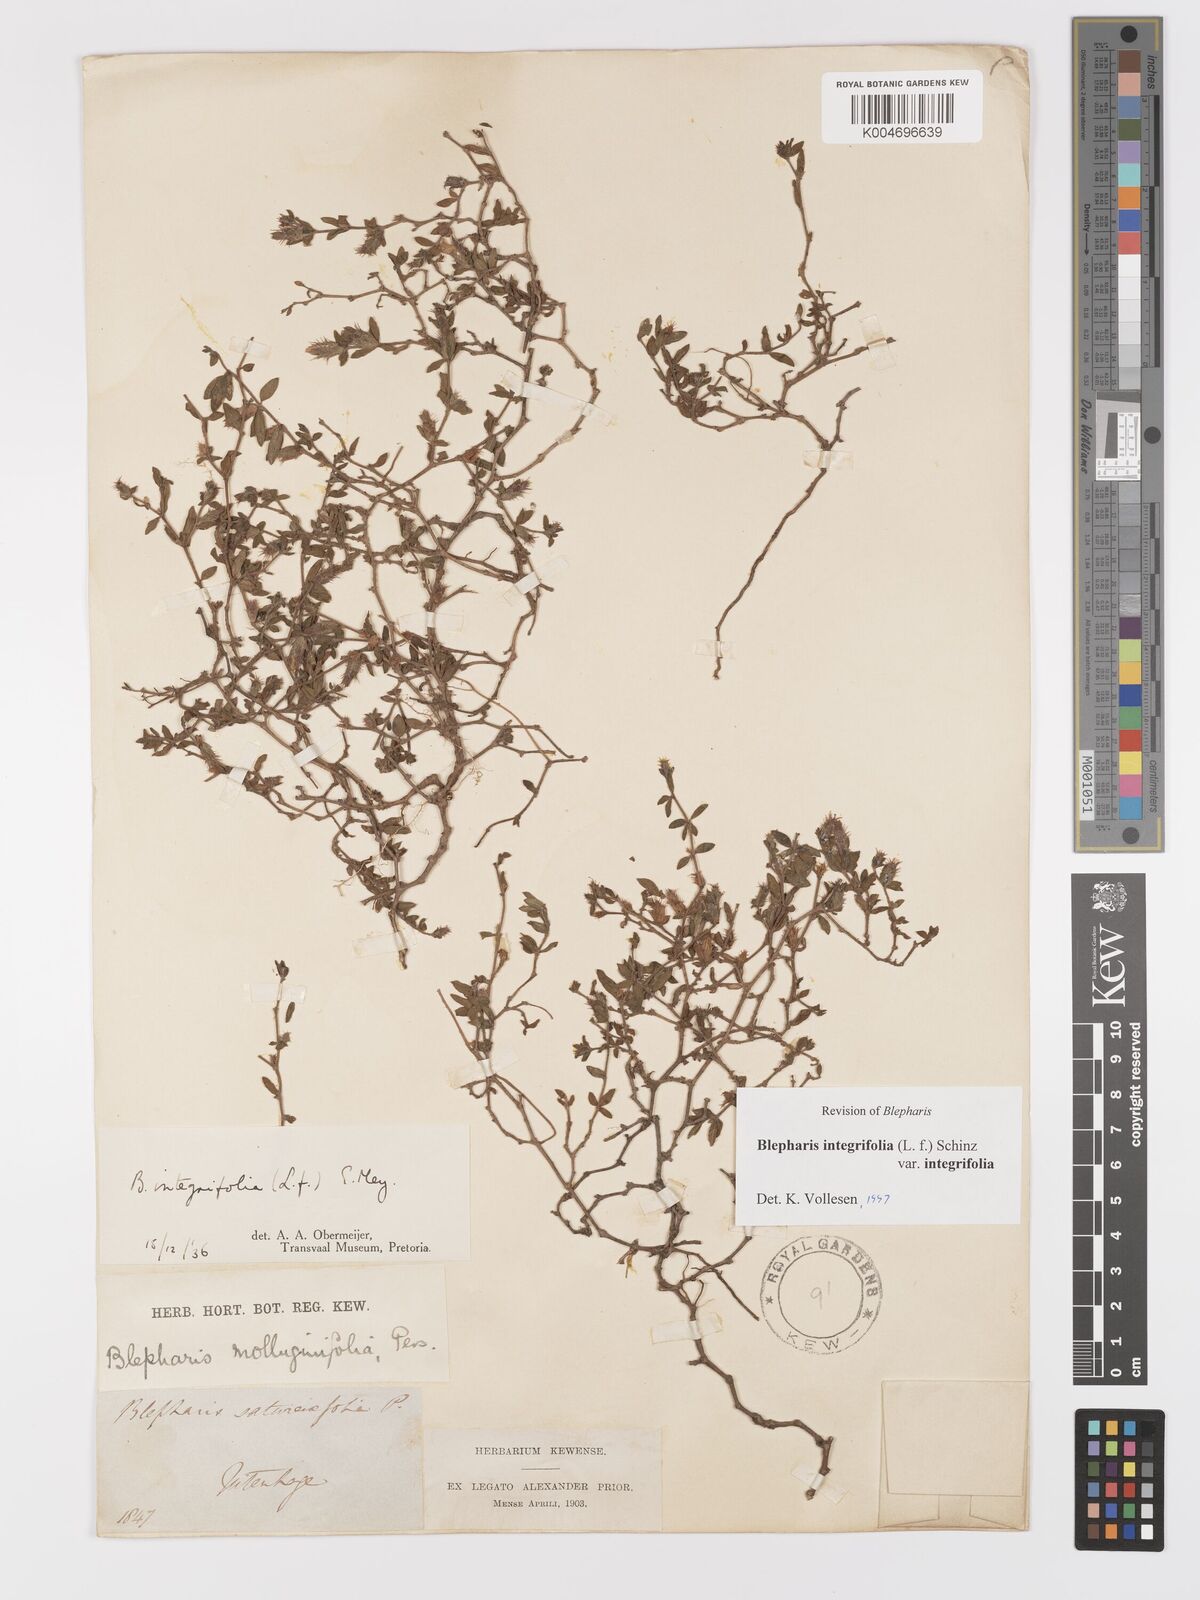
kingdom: Plantae
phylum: Tracheophyta
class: Magnoliopsida
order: Lamiales
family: Acanthaceae
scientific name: Acanthaceae
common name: Acanthaceae
